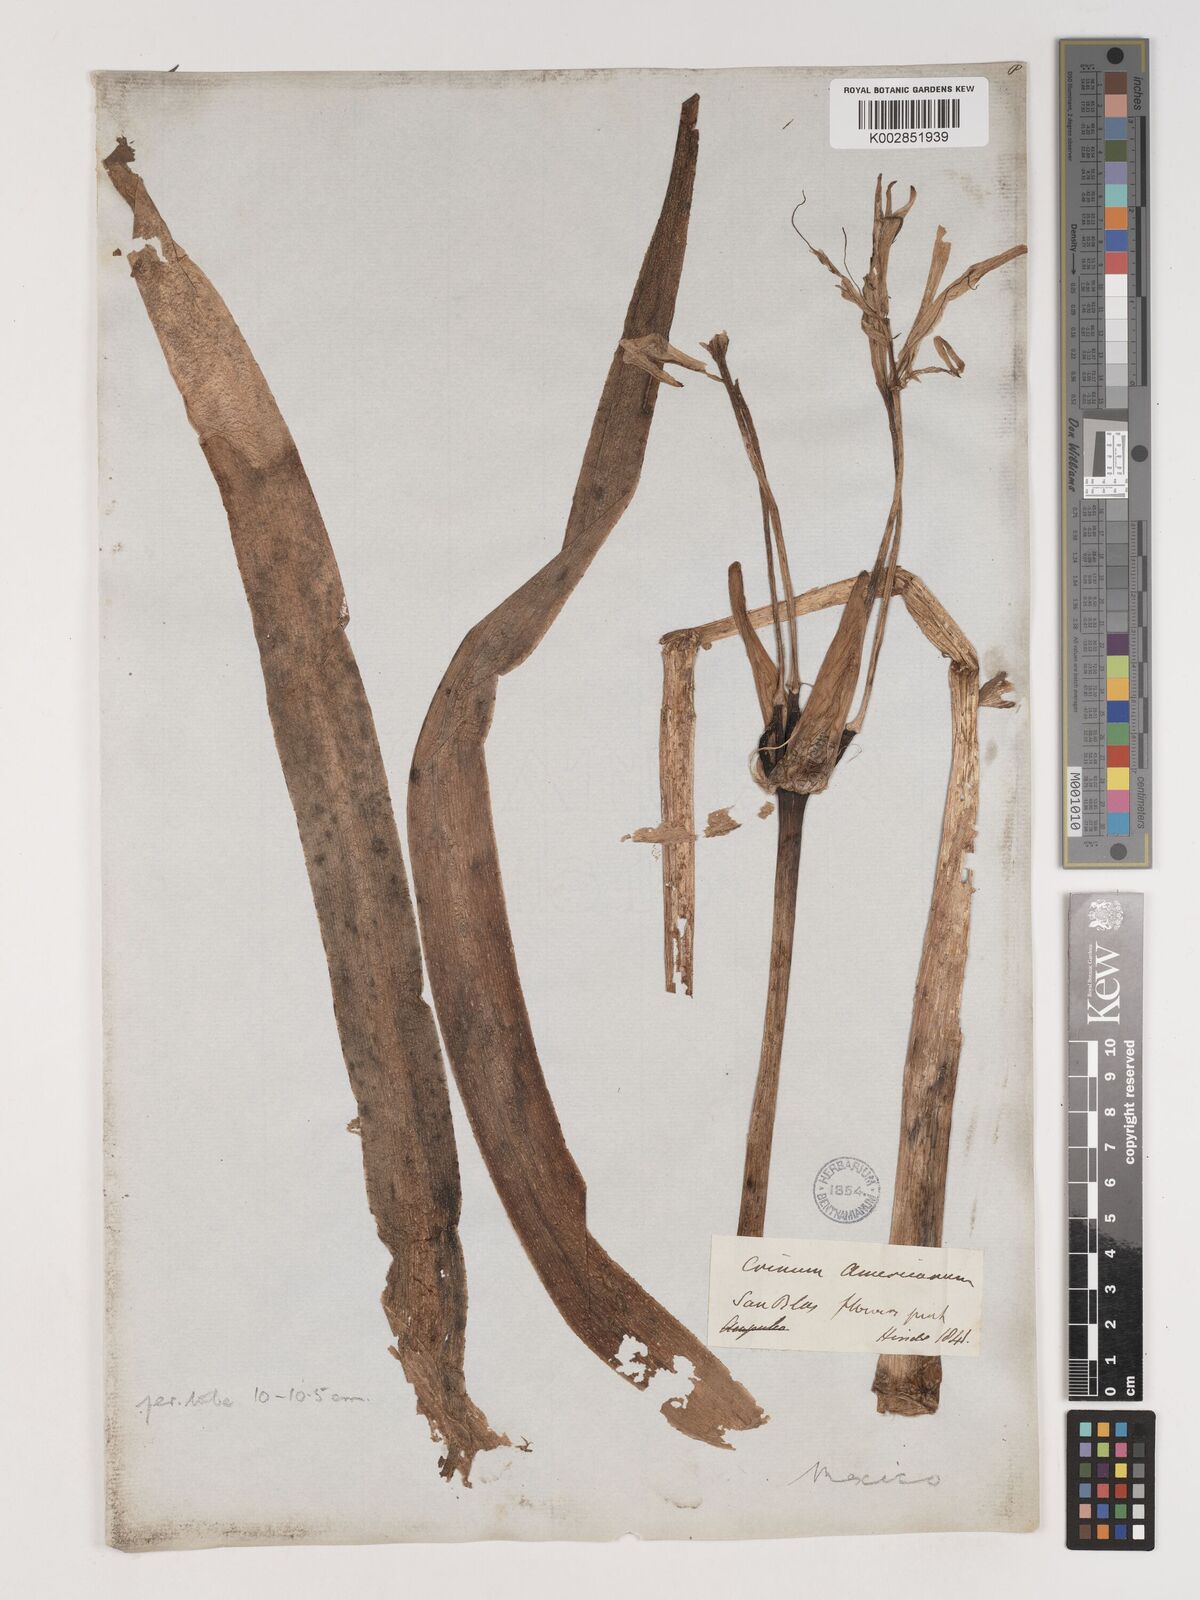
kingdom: Plantae
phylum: Tracheophyta
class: Liliopsida
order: Asparagales
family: Amaryllidaceae
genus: Crinum
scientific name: Crinum americanum
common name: Florida swamp-lily
